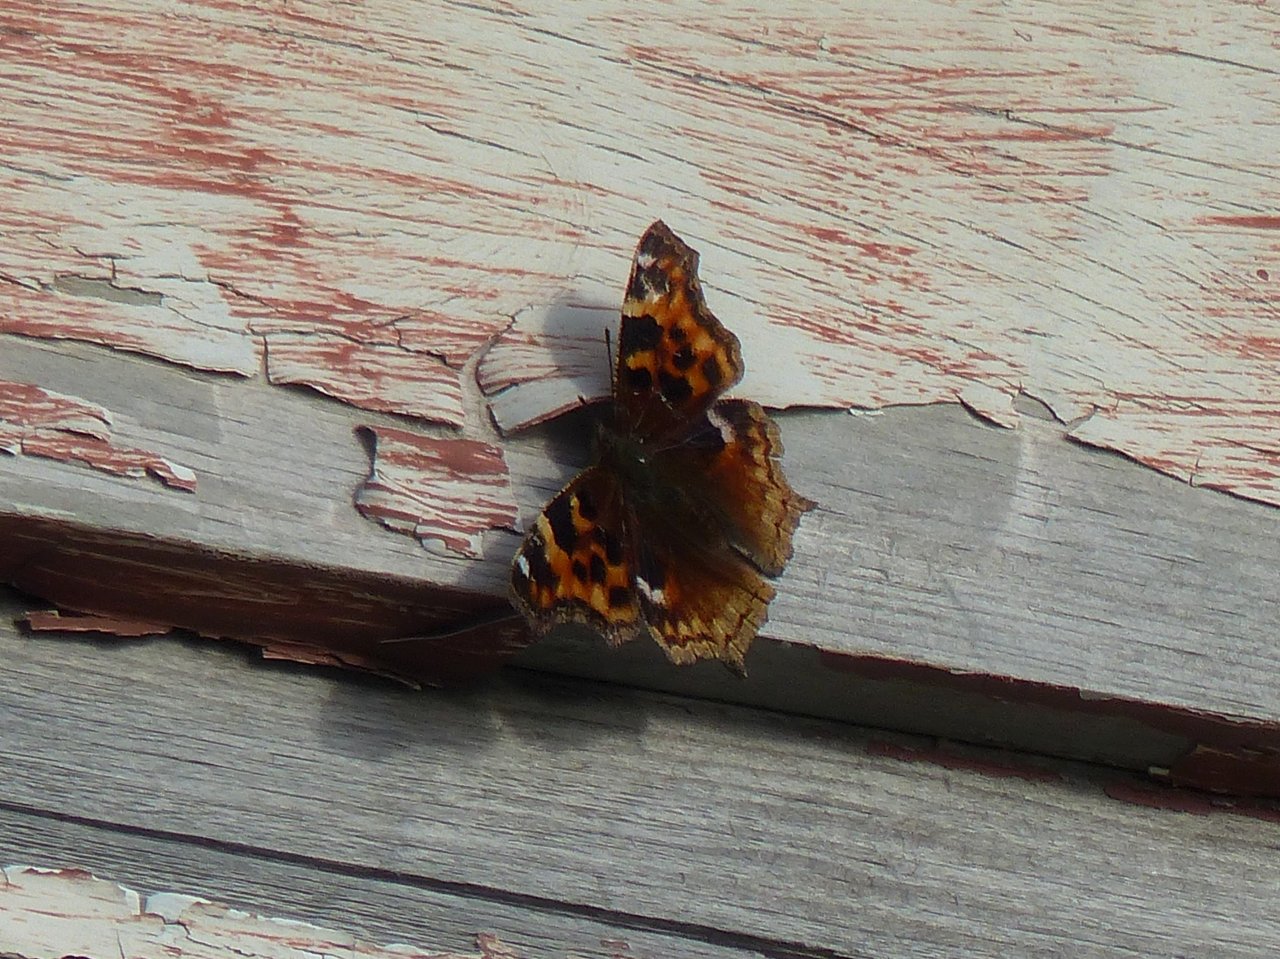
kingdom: Animalia
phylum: Arthropoda
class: Insecta
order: Lepidoptera
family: Nymphalidae
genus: Polygonia
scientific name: Polygonia vaualbum
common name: Compton Tortoiseshell
